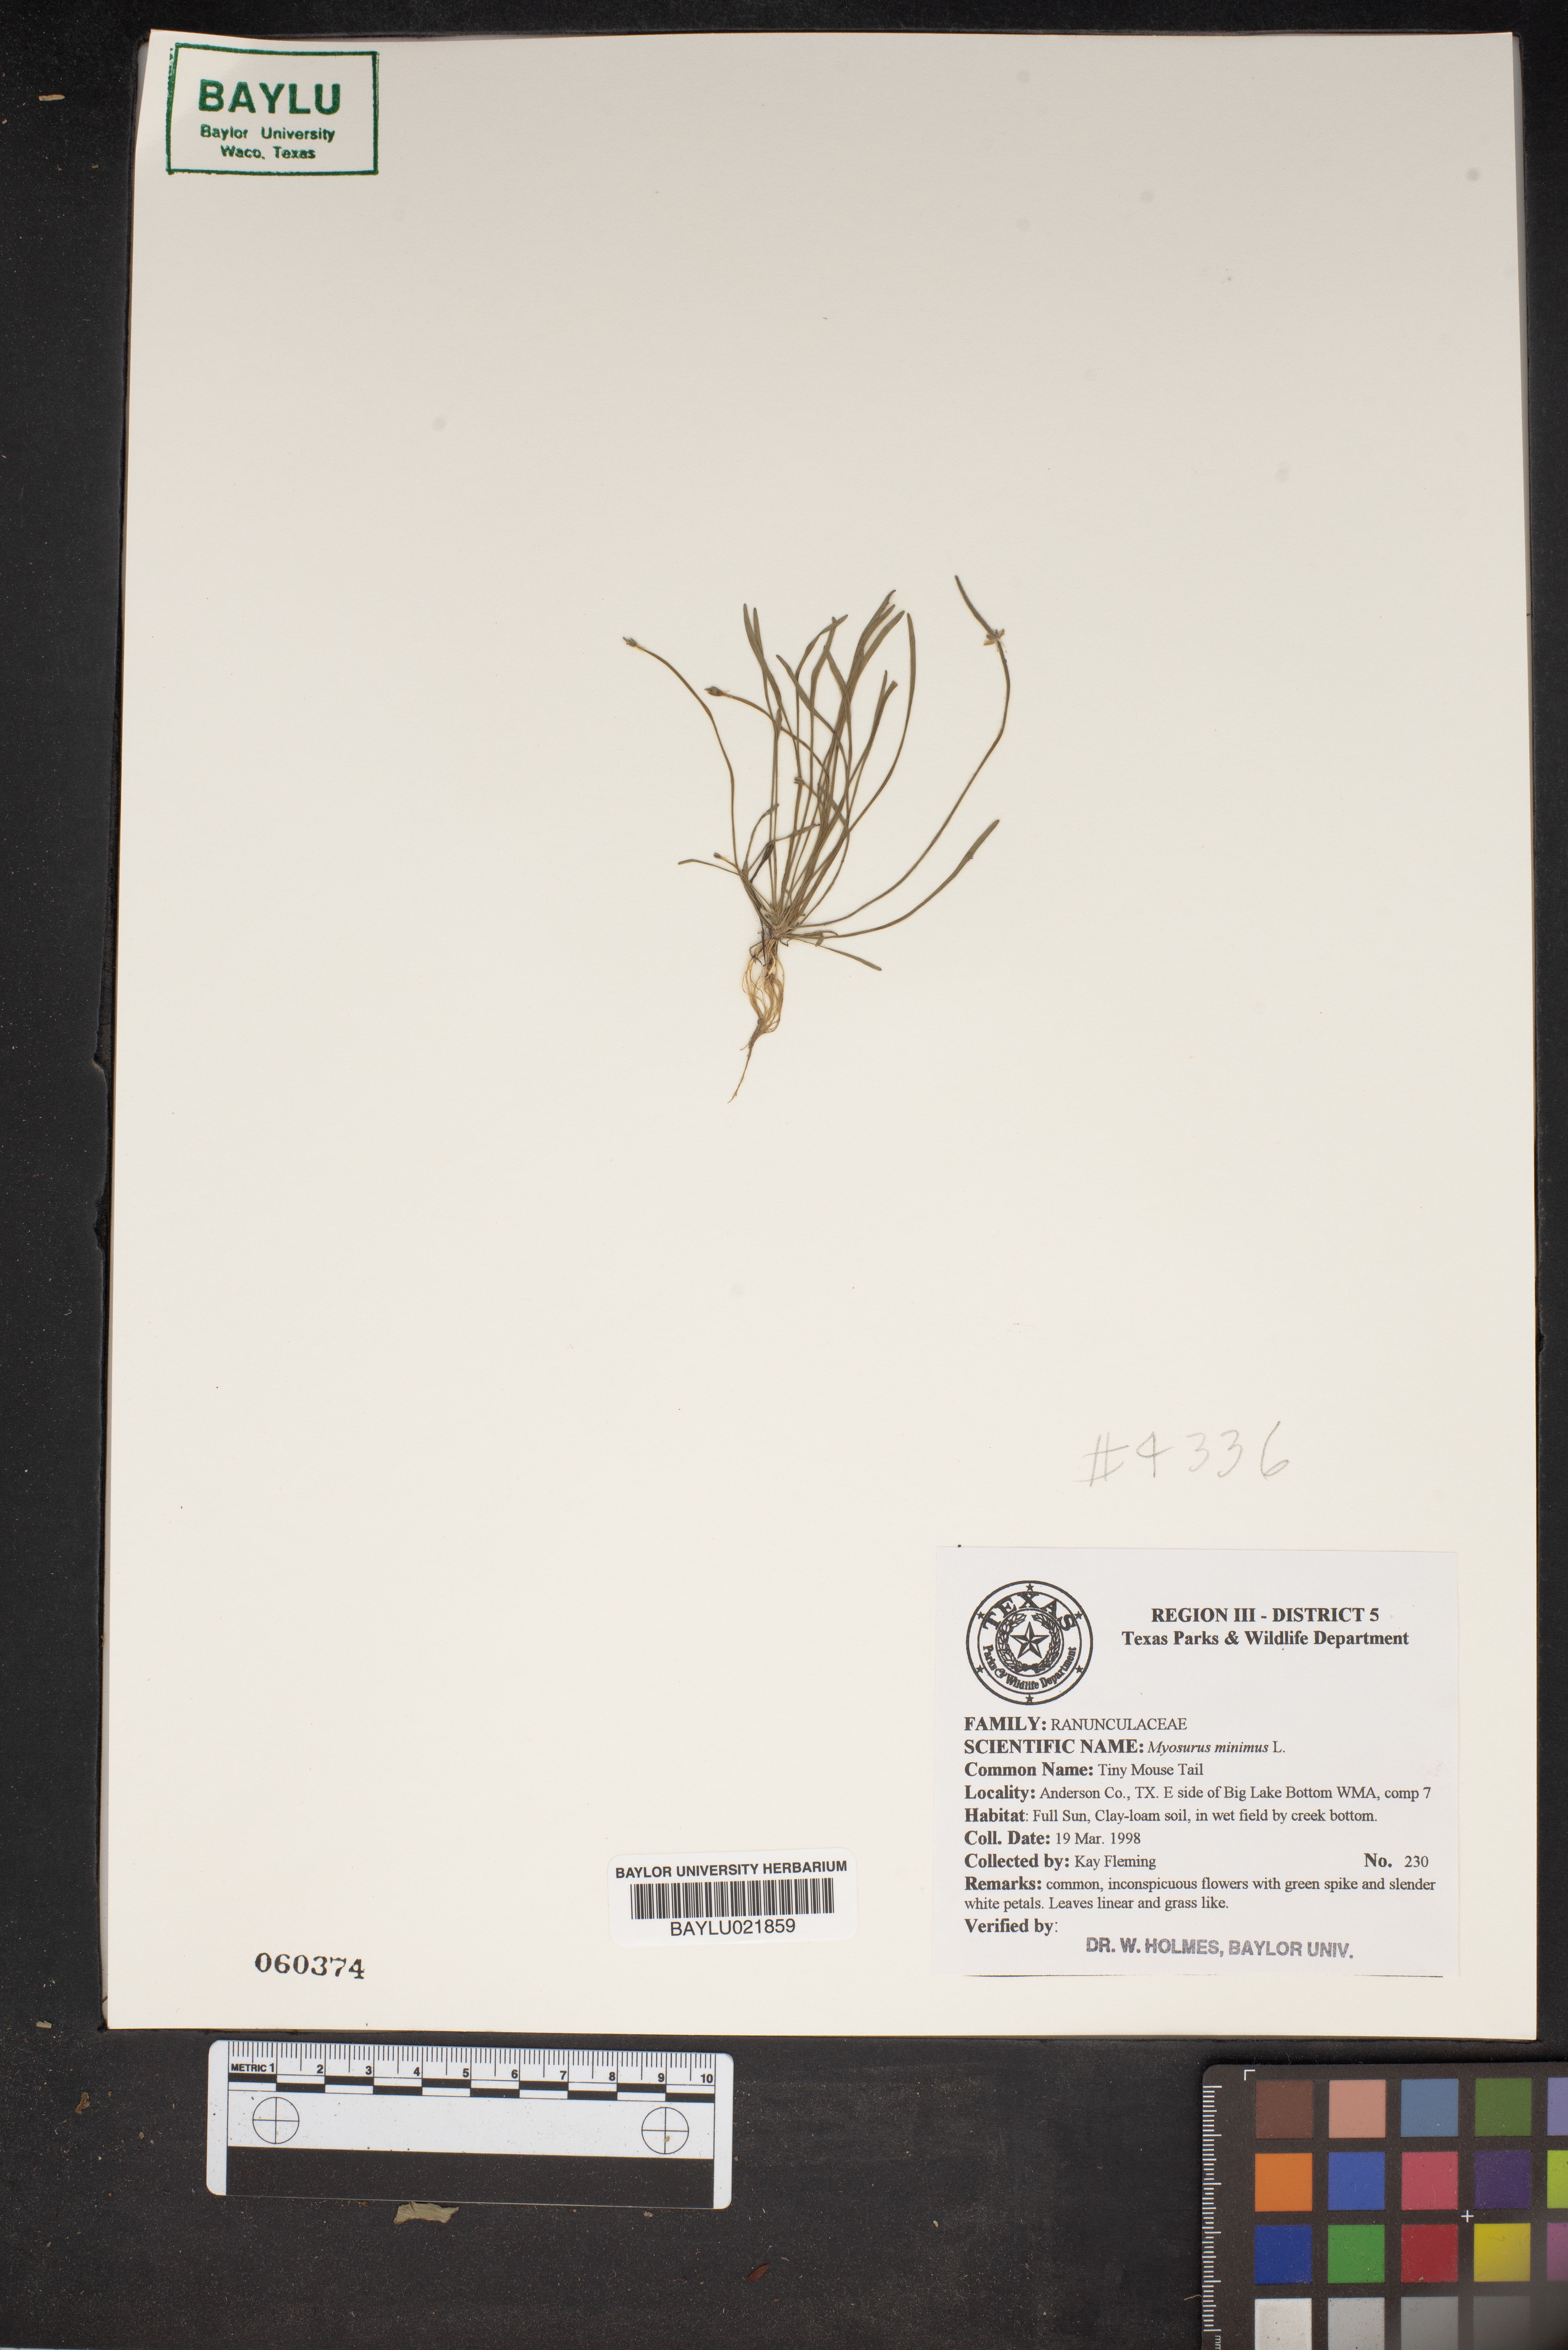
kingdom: Plantae
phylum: Tracheophyta
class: Magnoliopsida
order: Ranunculales
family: Ranunculaceae
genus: Myosurus
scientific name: Myosurus minimus
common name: Mousetail
